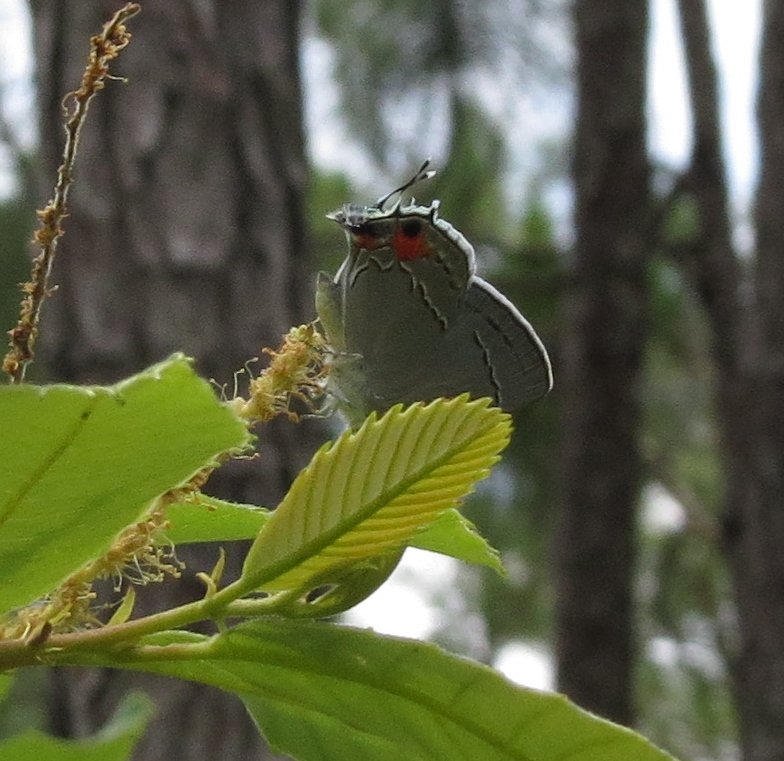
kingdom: Animalia
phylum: Arthropoda
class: Insecta
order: Lepidoptera
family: Lycaenidae
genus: Strymon
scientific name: Strymon melinus
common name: Gray Hairstreak
